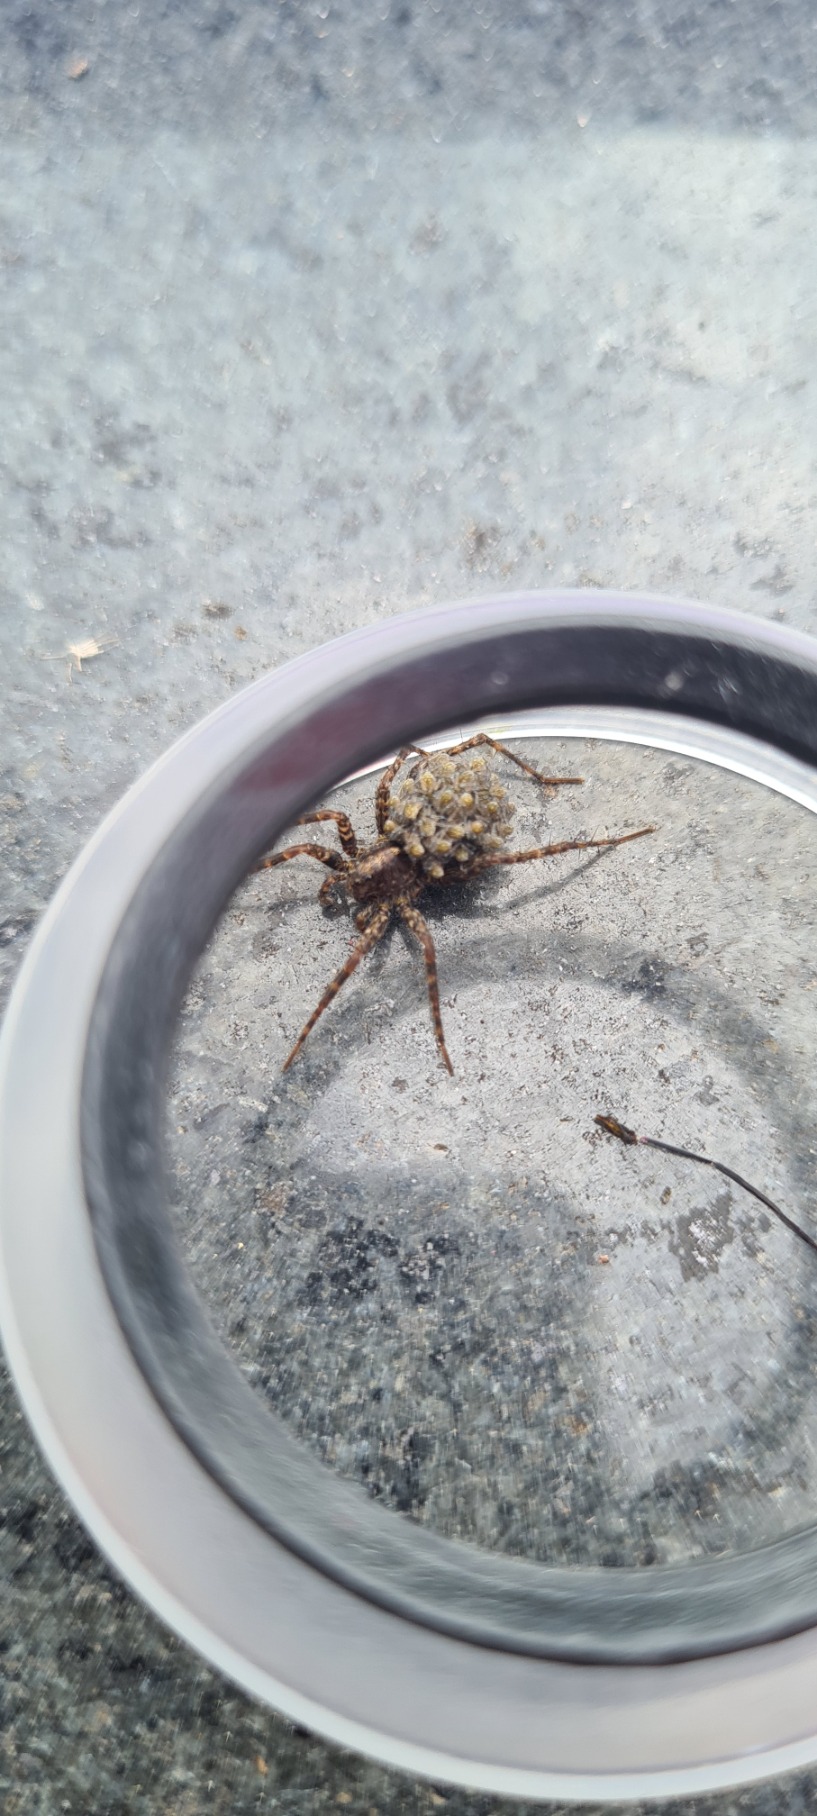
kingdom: Animalia
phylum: Arthropoda
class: Arachnida
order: Araneae
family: Lycosidae
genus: Pardosa
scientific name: Pardosa
